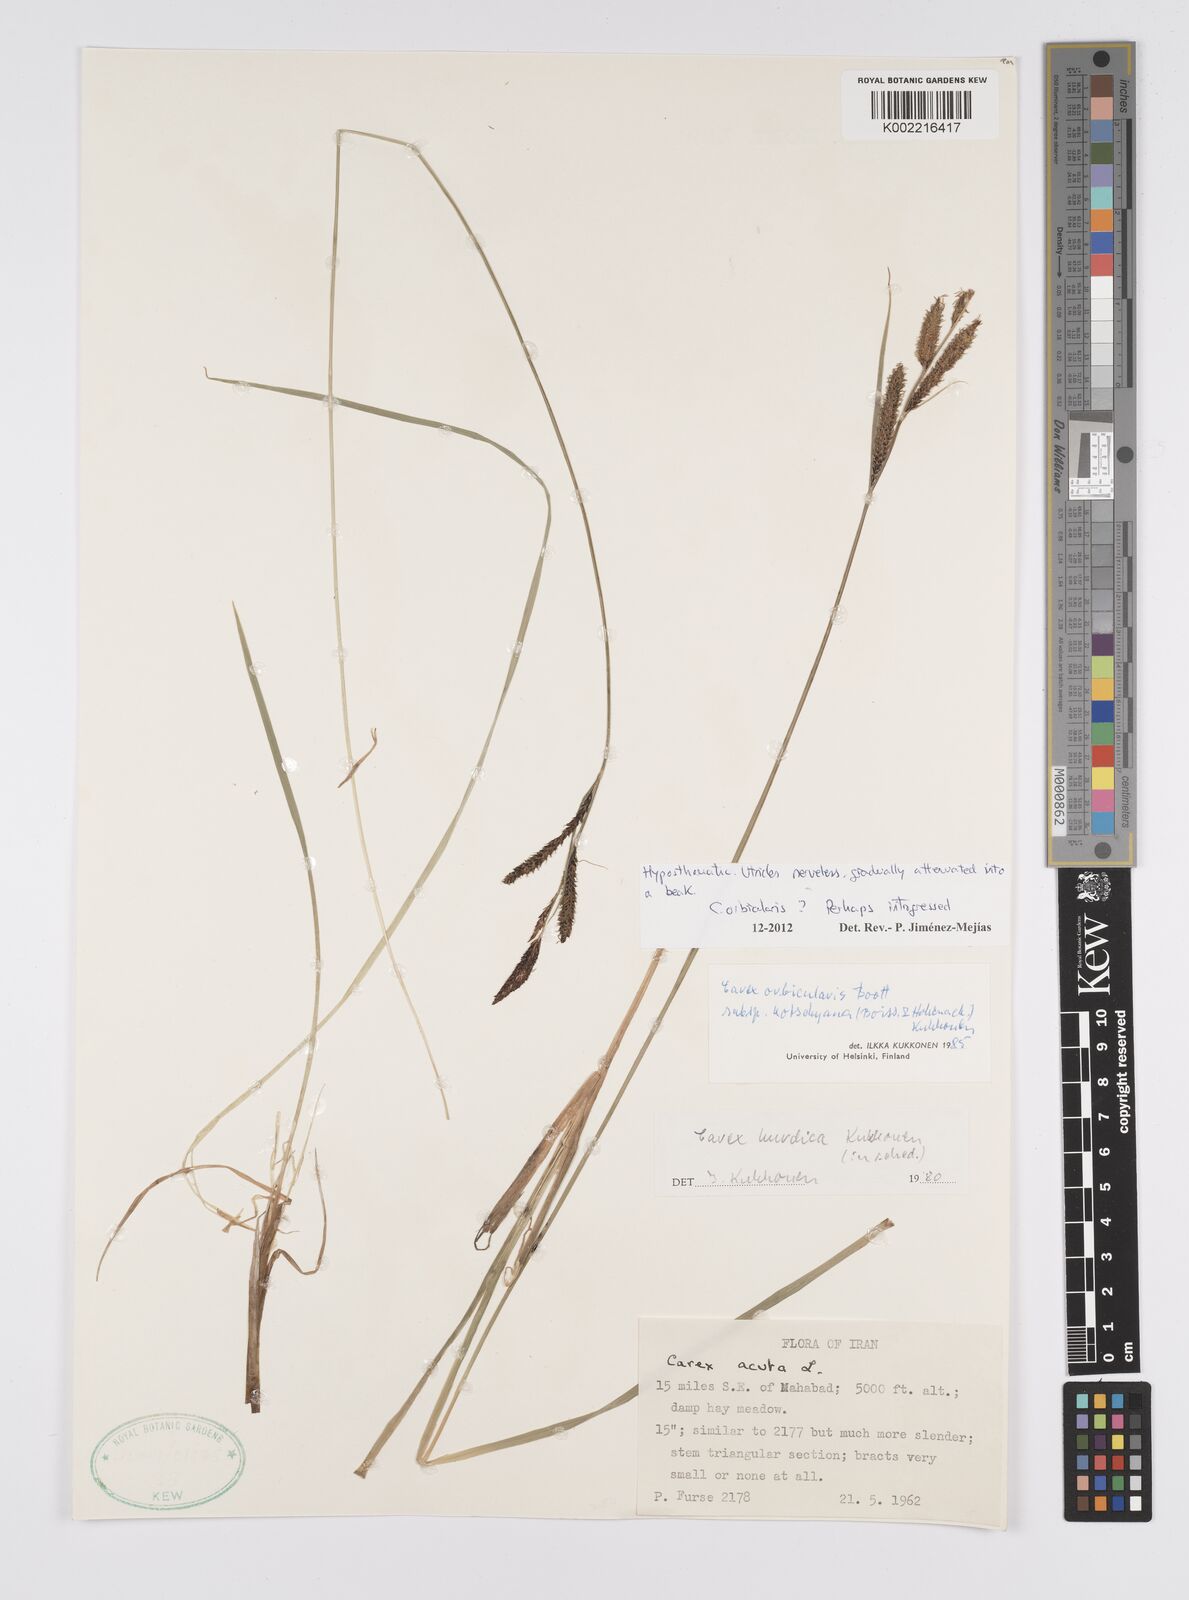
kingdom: Plantae
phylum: Tracheophyta
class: Liliopsida
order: Poales
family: Cyperaceae
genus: Carex
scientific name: Carex orbicularis
